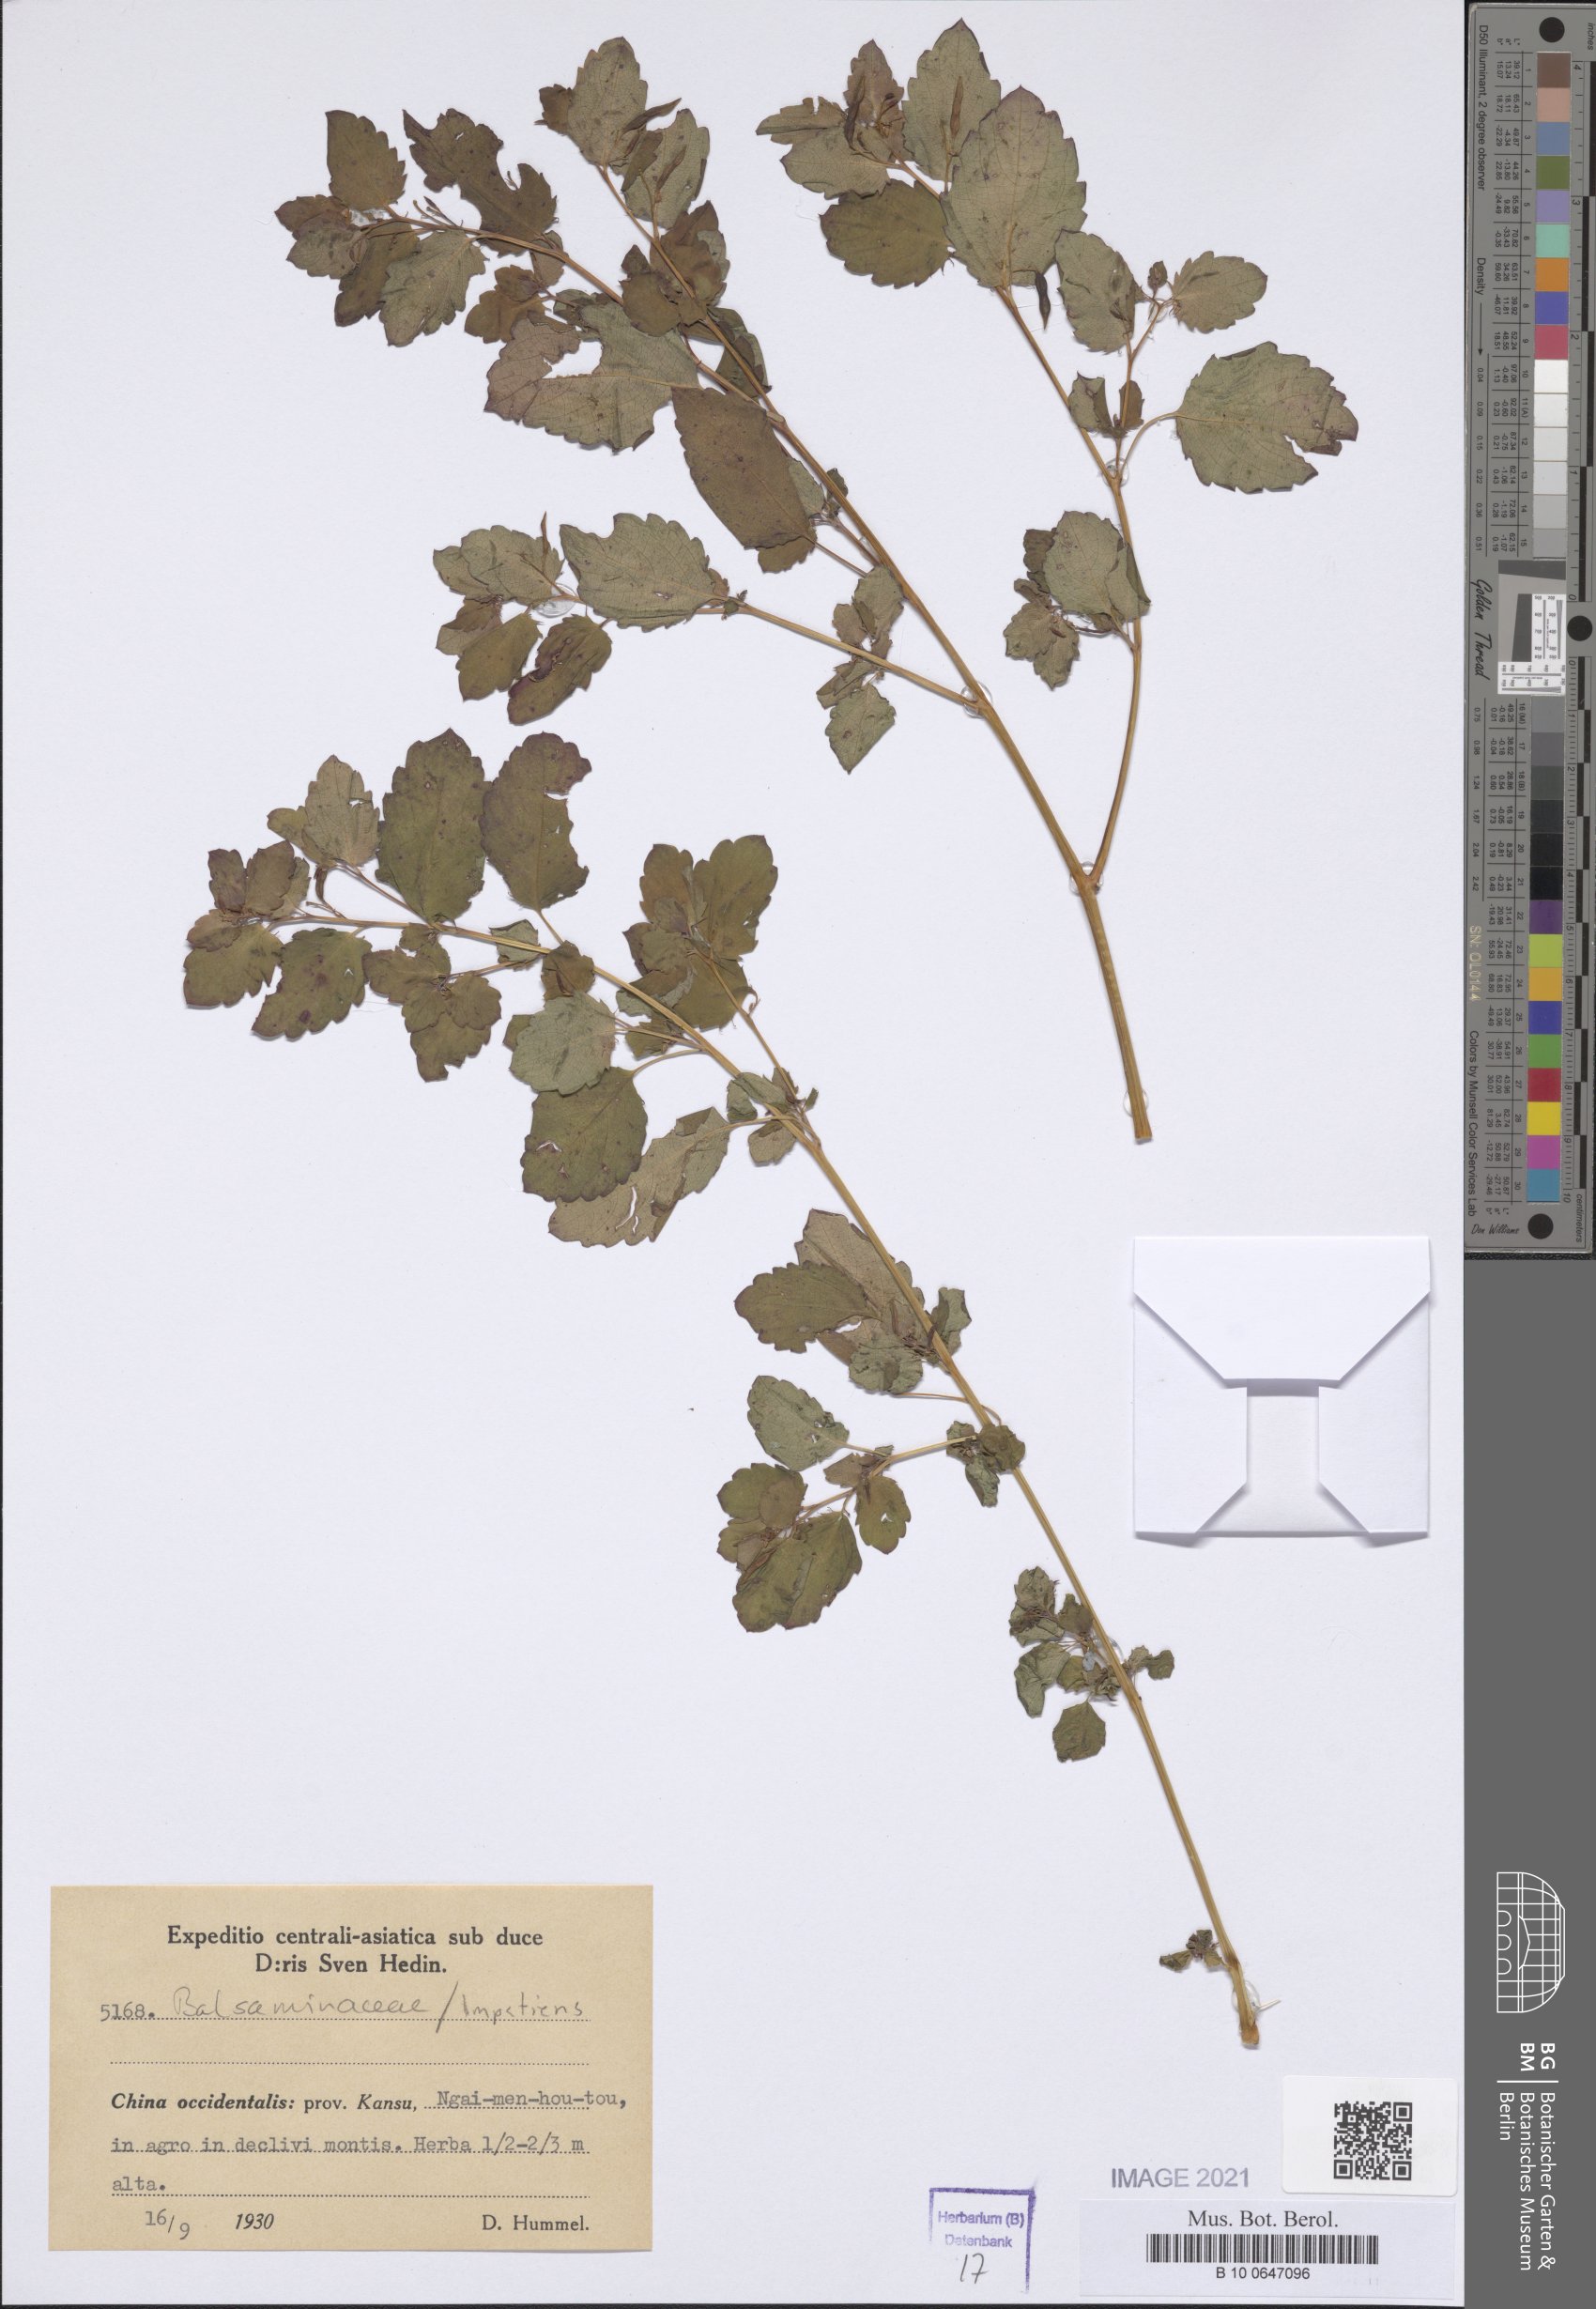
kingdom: Plantae
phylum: Tracheophyta
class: Magnoliopsida
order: Ericales
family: Balsaminaceae
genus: Impatiens
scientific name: Impatiens
